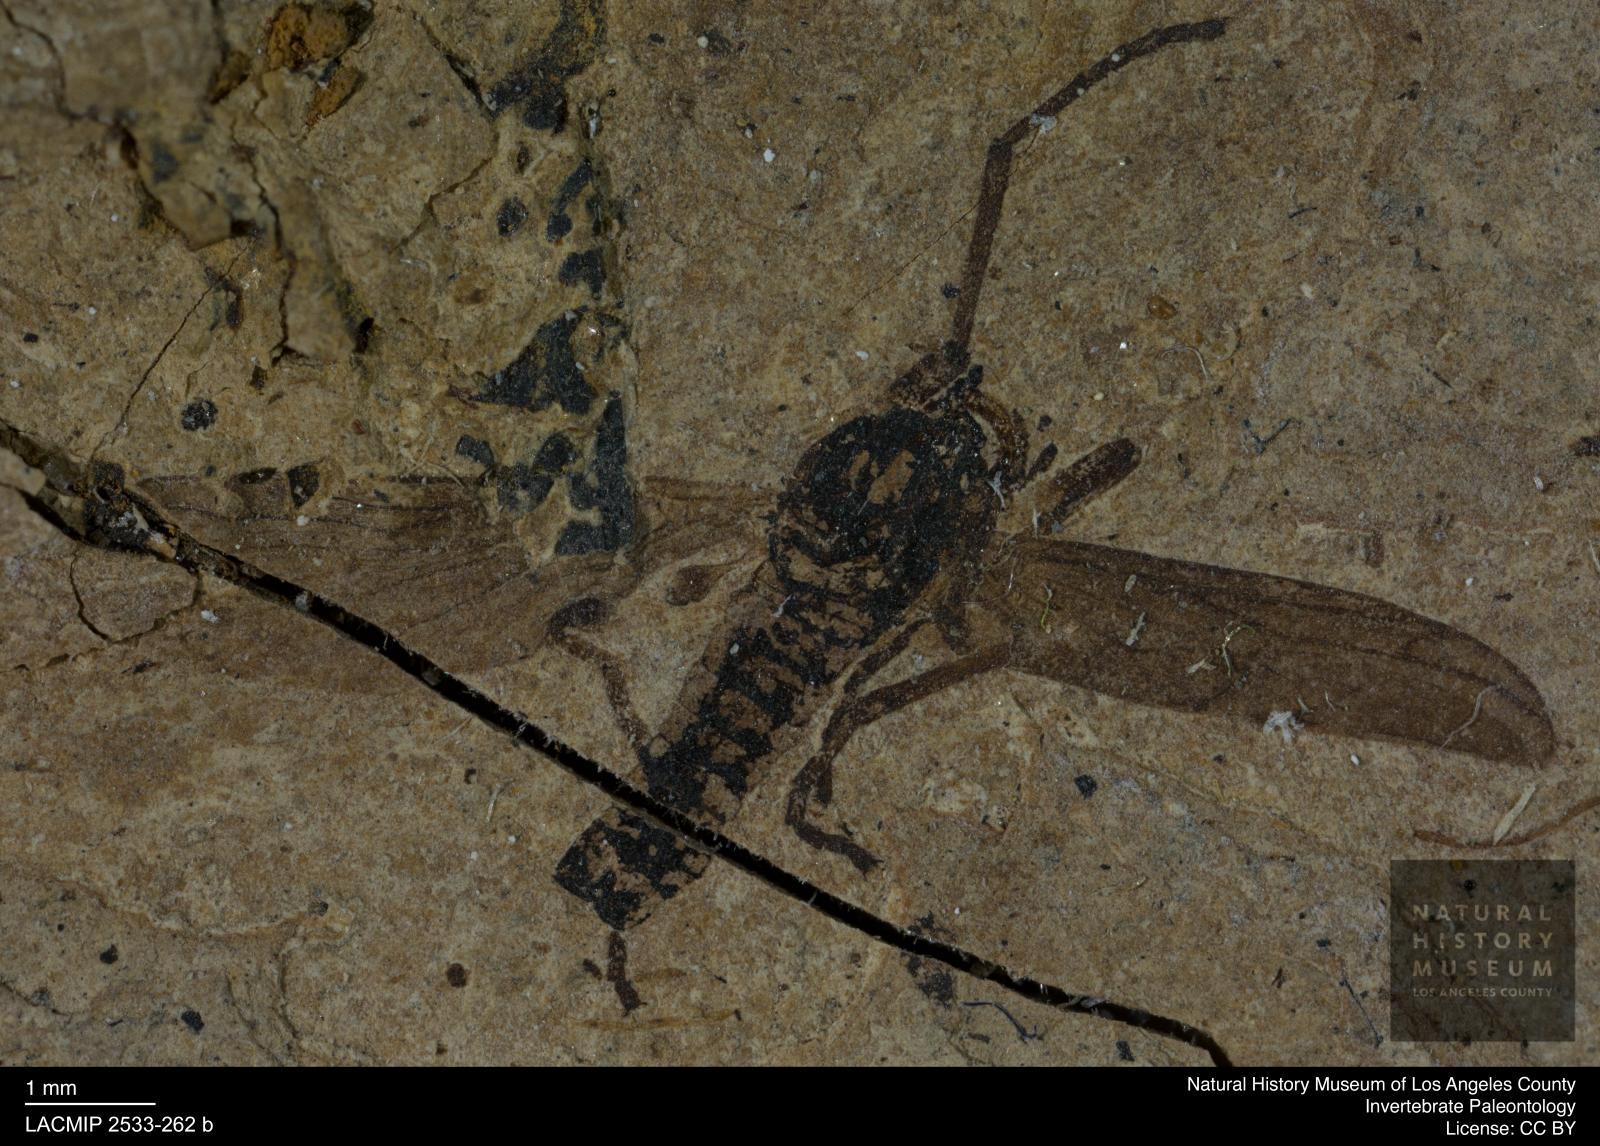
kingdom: Animalia
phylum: Arthropoda
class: Insecta
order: Diptera
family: Bibionidae
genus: Plecia
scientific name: Plecia
